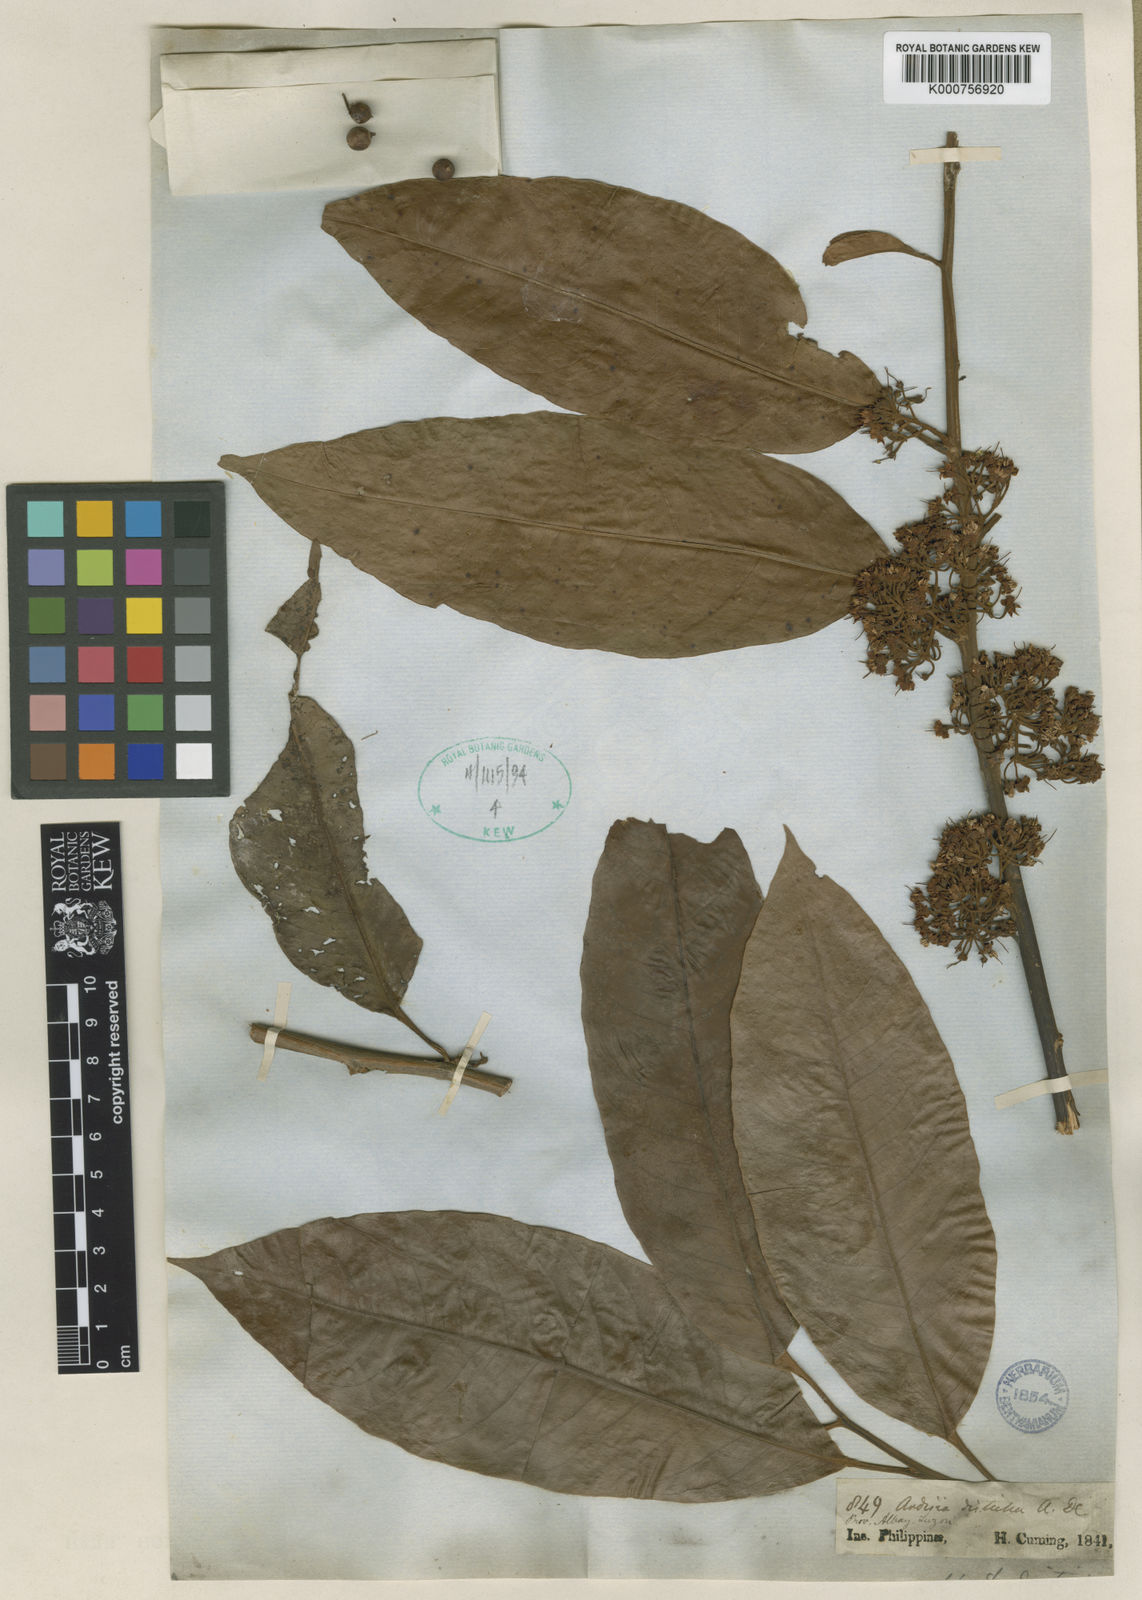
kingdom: Plantae
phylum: Tracheophyta
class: Magnoliopsida
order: Ericales
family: Primulaceae
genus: Ardisia
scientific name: Ardisia tomentosa
